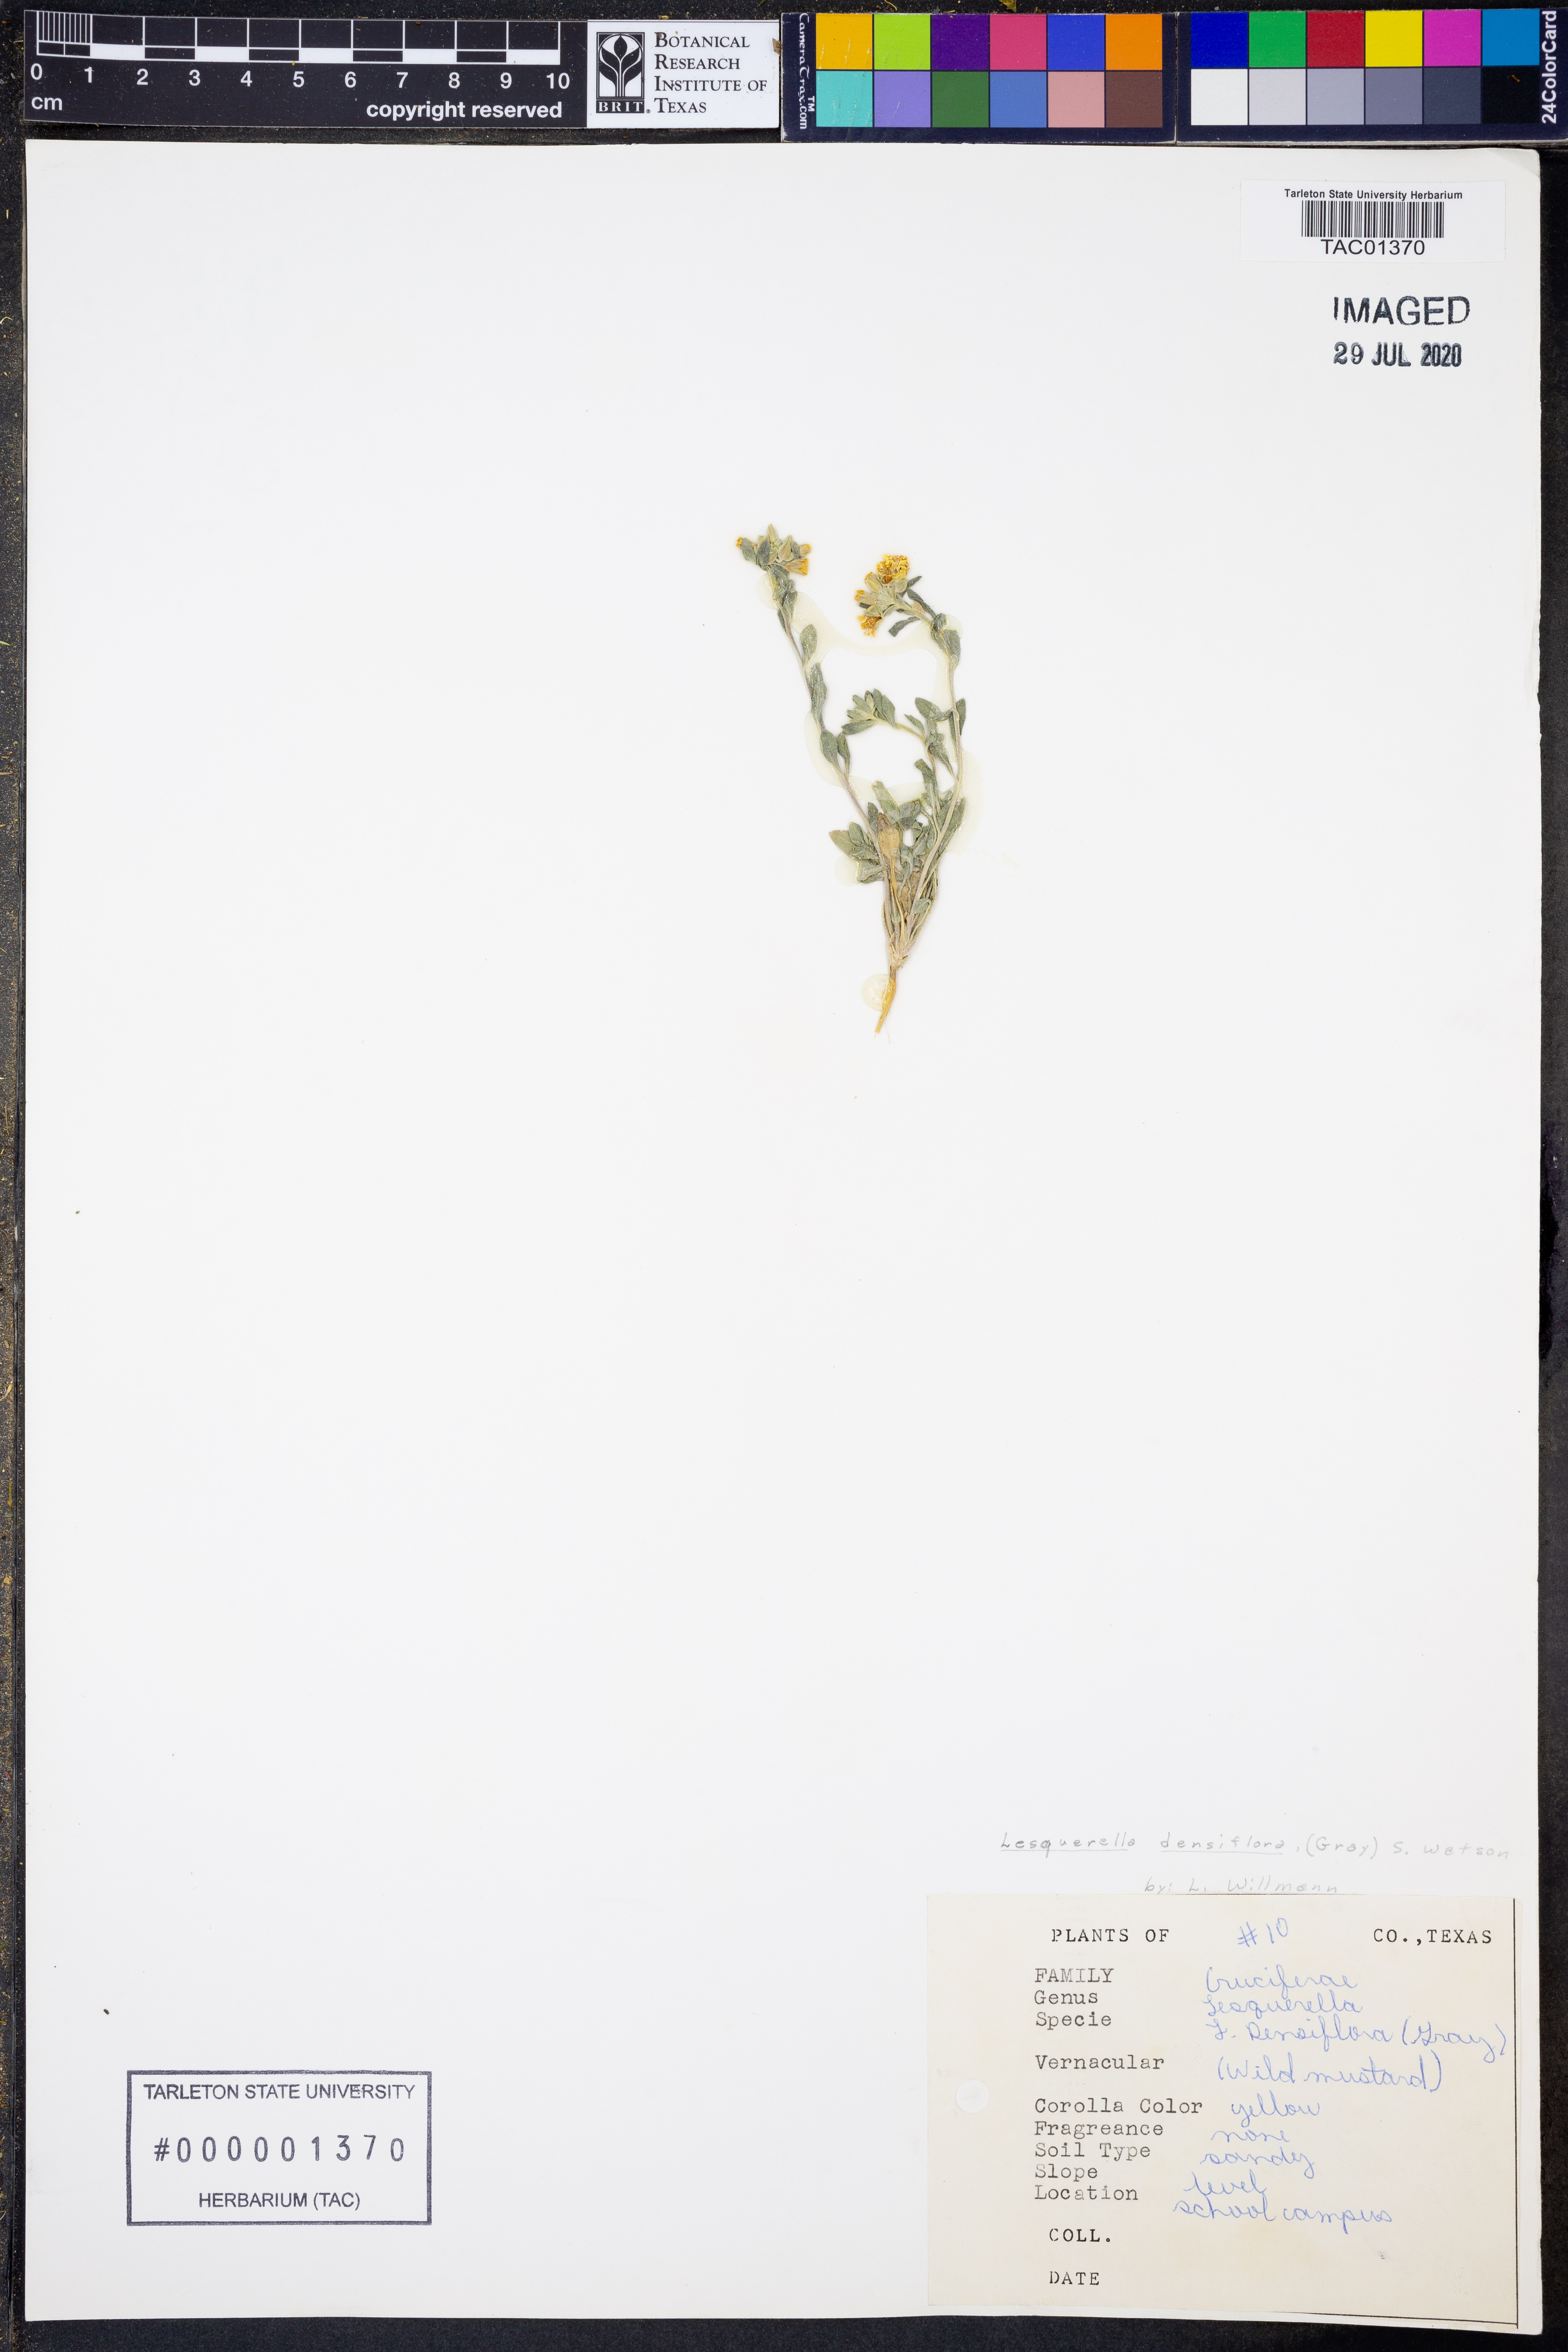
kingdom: Plantae
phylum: Tracheophyta
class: Magnoliopsida
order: Brassicales
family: Brassicaceae
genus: Physaria
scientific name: Physaria densiflora
